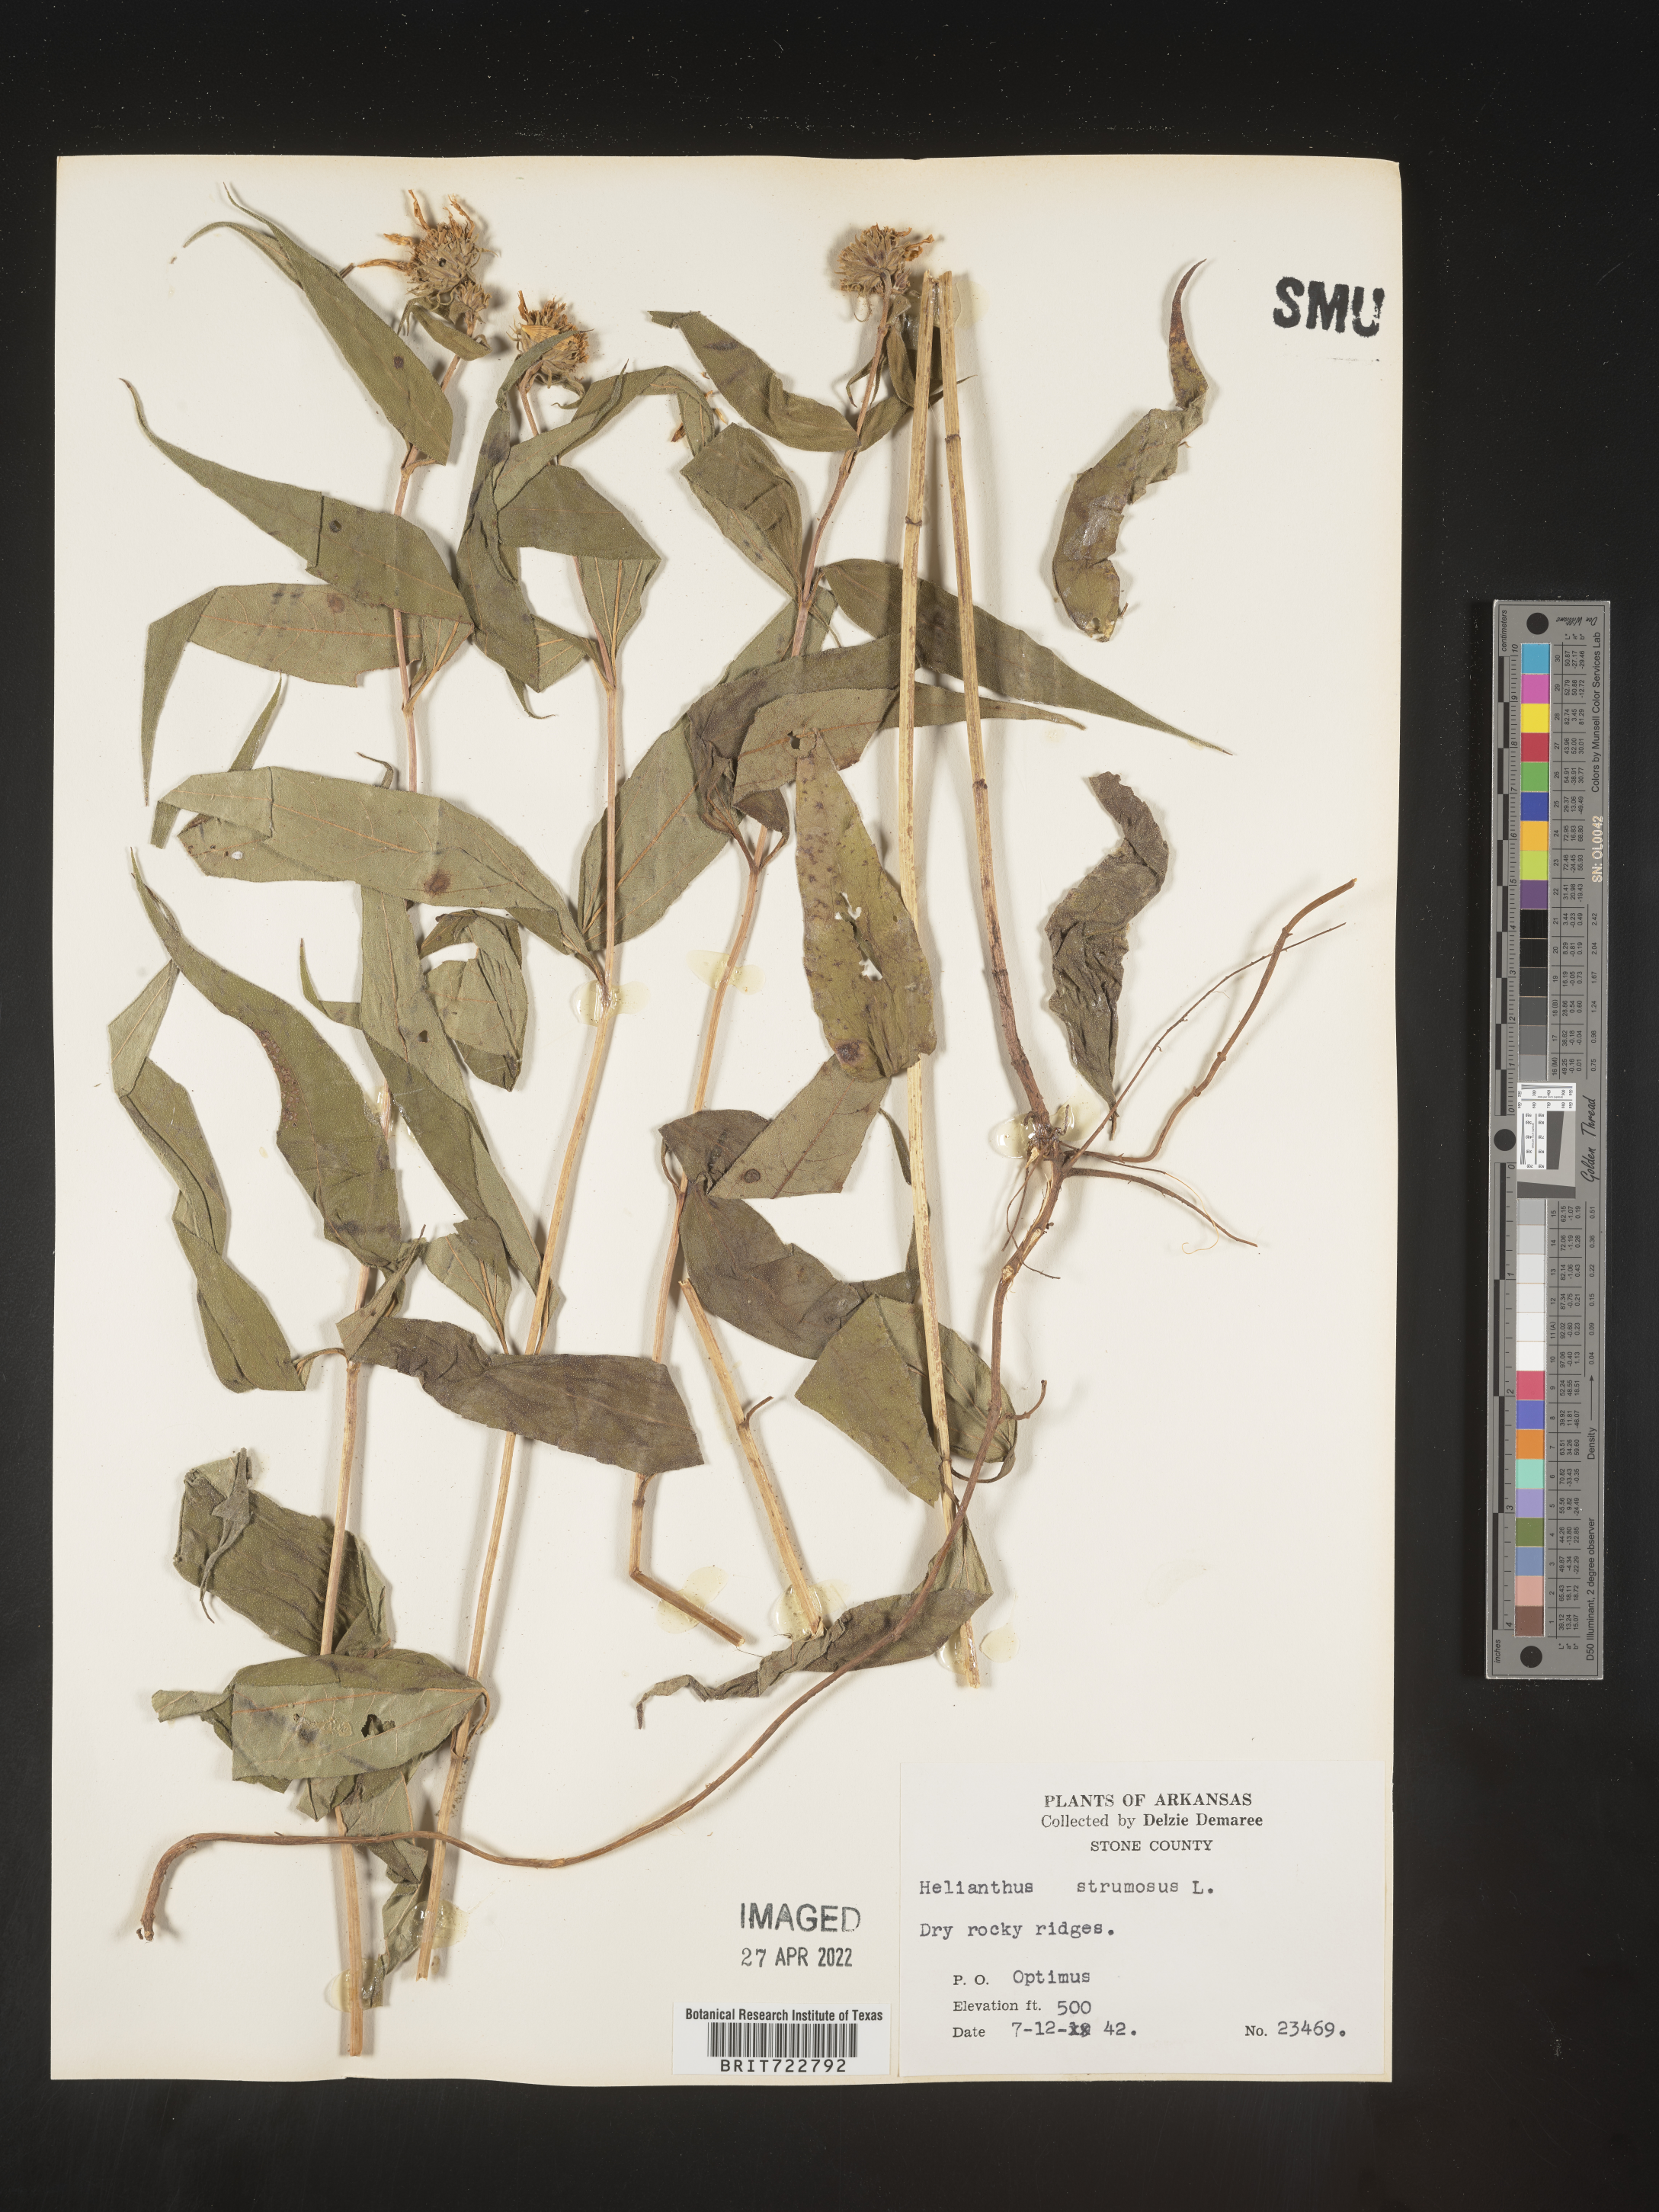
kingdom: Plantae
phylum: Tracheophyta
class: Magnoliopsida
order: Asterales
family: Asteraceae
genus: Helianthus
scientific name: Helianthus strumosus
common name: Pale-leaved sunflower
